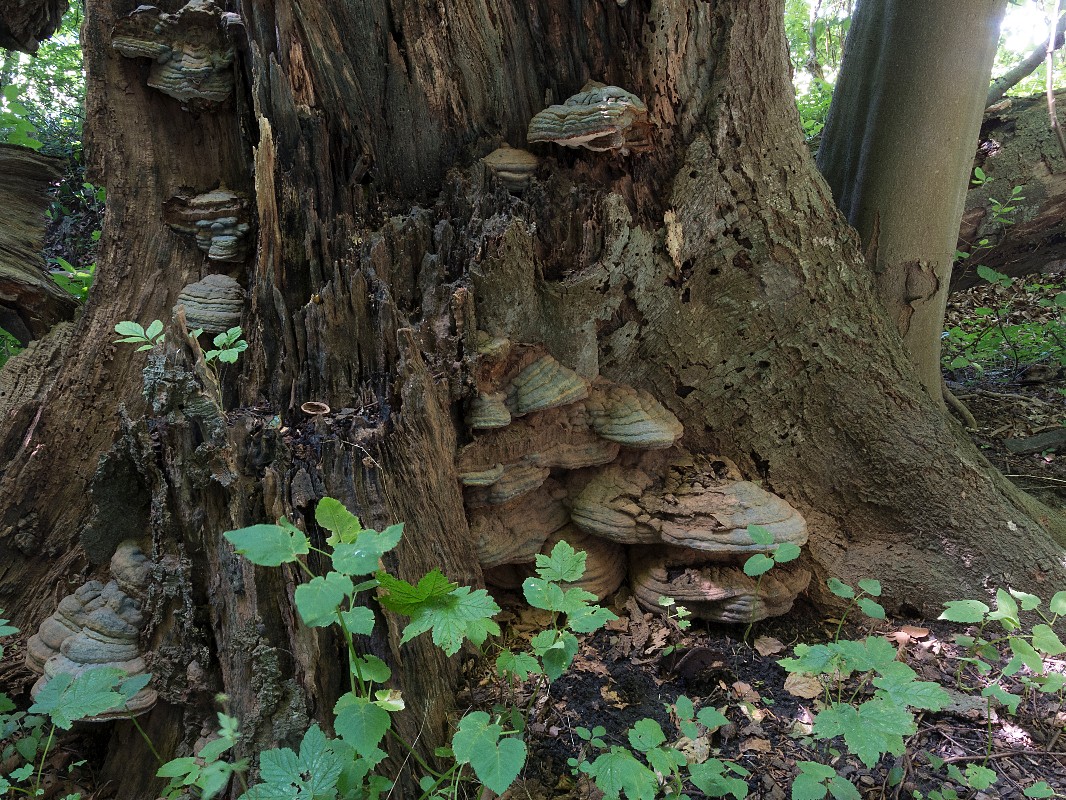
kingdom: Fungi
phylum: Basidiomycota
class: Agaricomycetes
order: Polyporales
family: Polyporaceae
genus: Ganoderma
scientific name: Ganoderma pfeifferi
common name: kobberrød lakporesvamp
